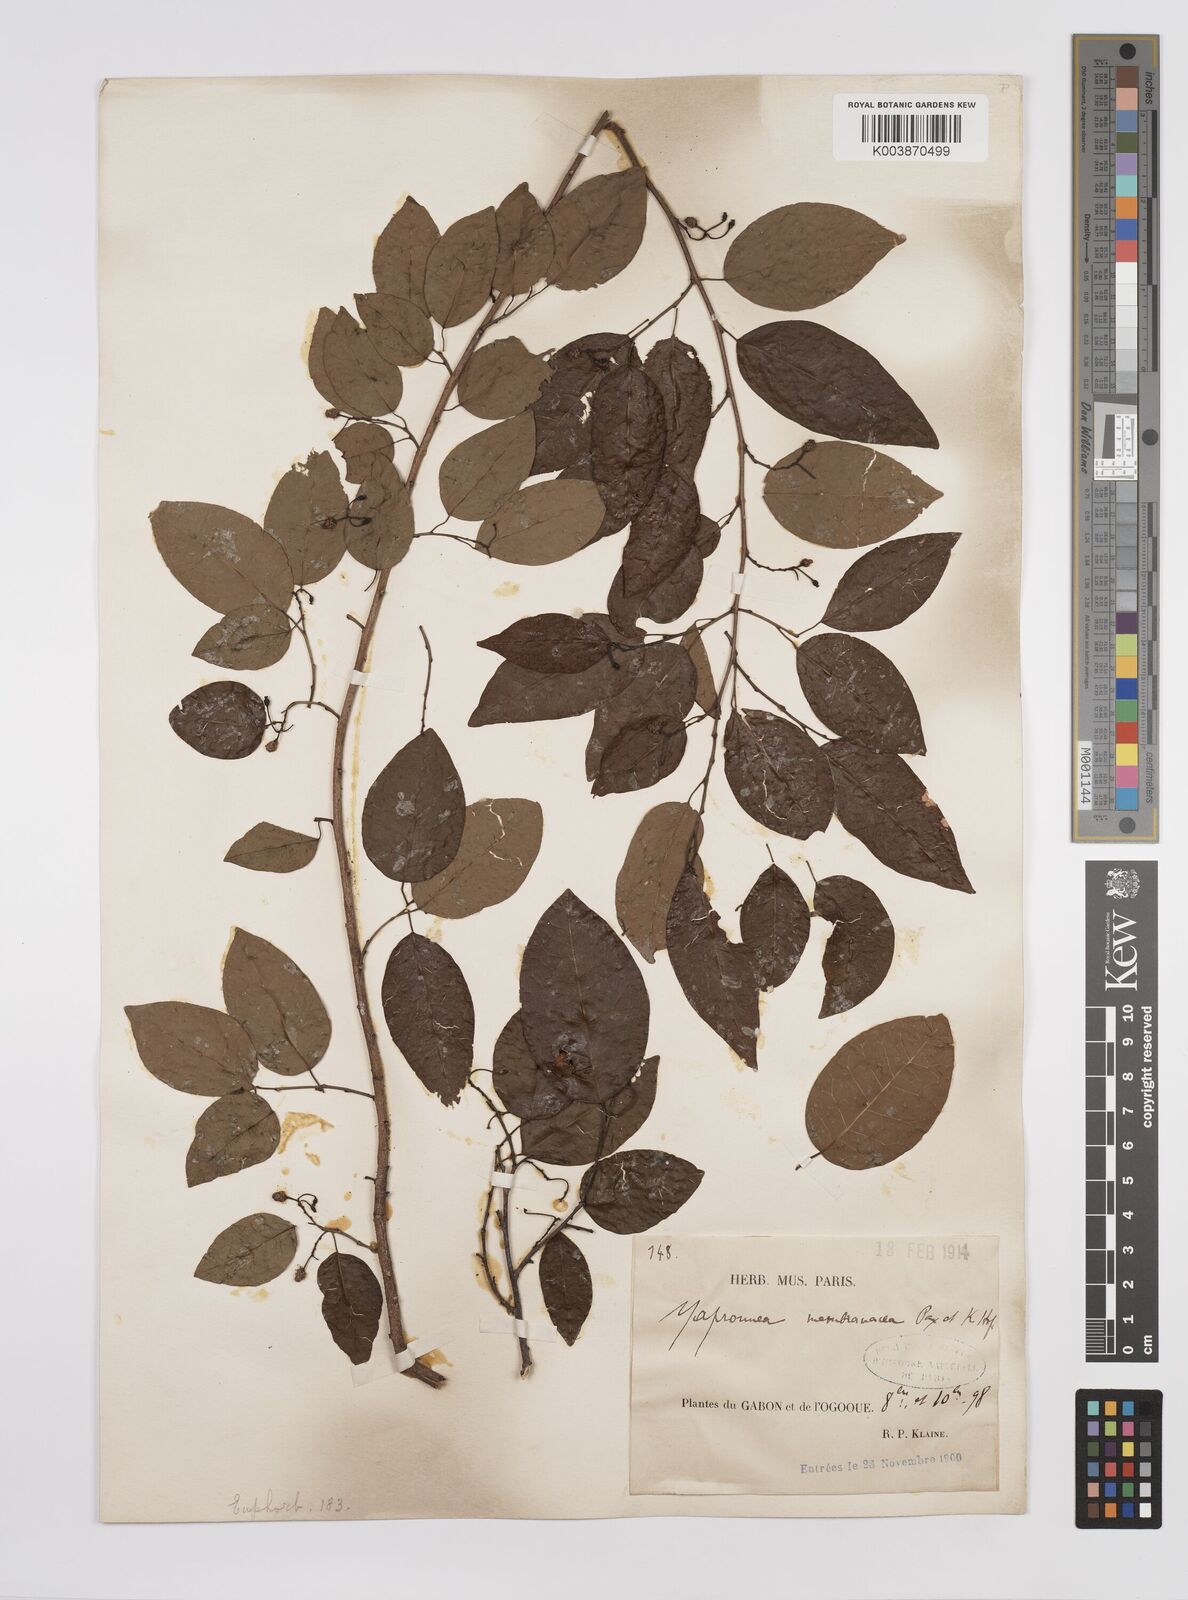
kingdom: Plantae
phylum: Tracheophyta
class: Magnoliopsida
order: Malpighiales
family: Euphorbiaceae
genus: Maprounea
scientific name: Maprounea membranacea
